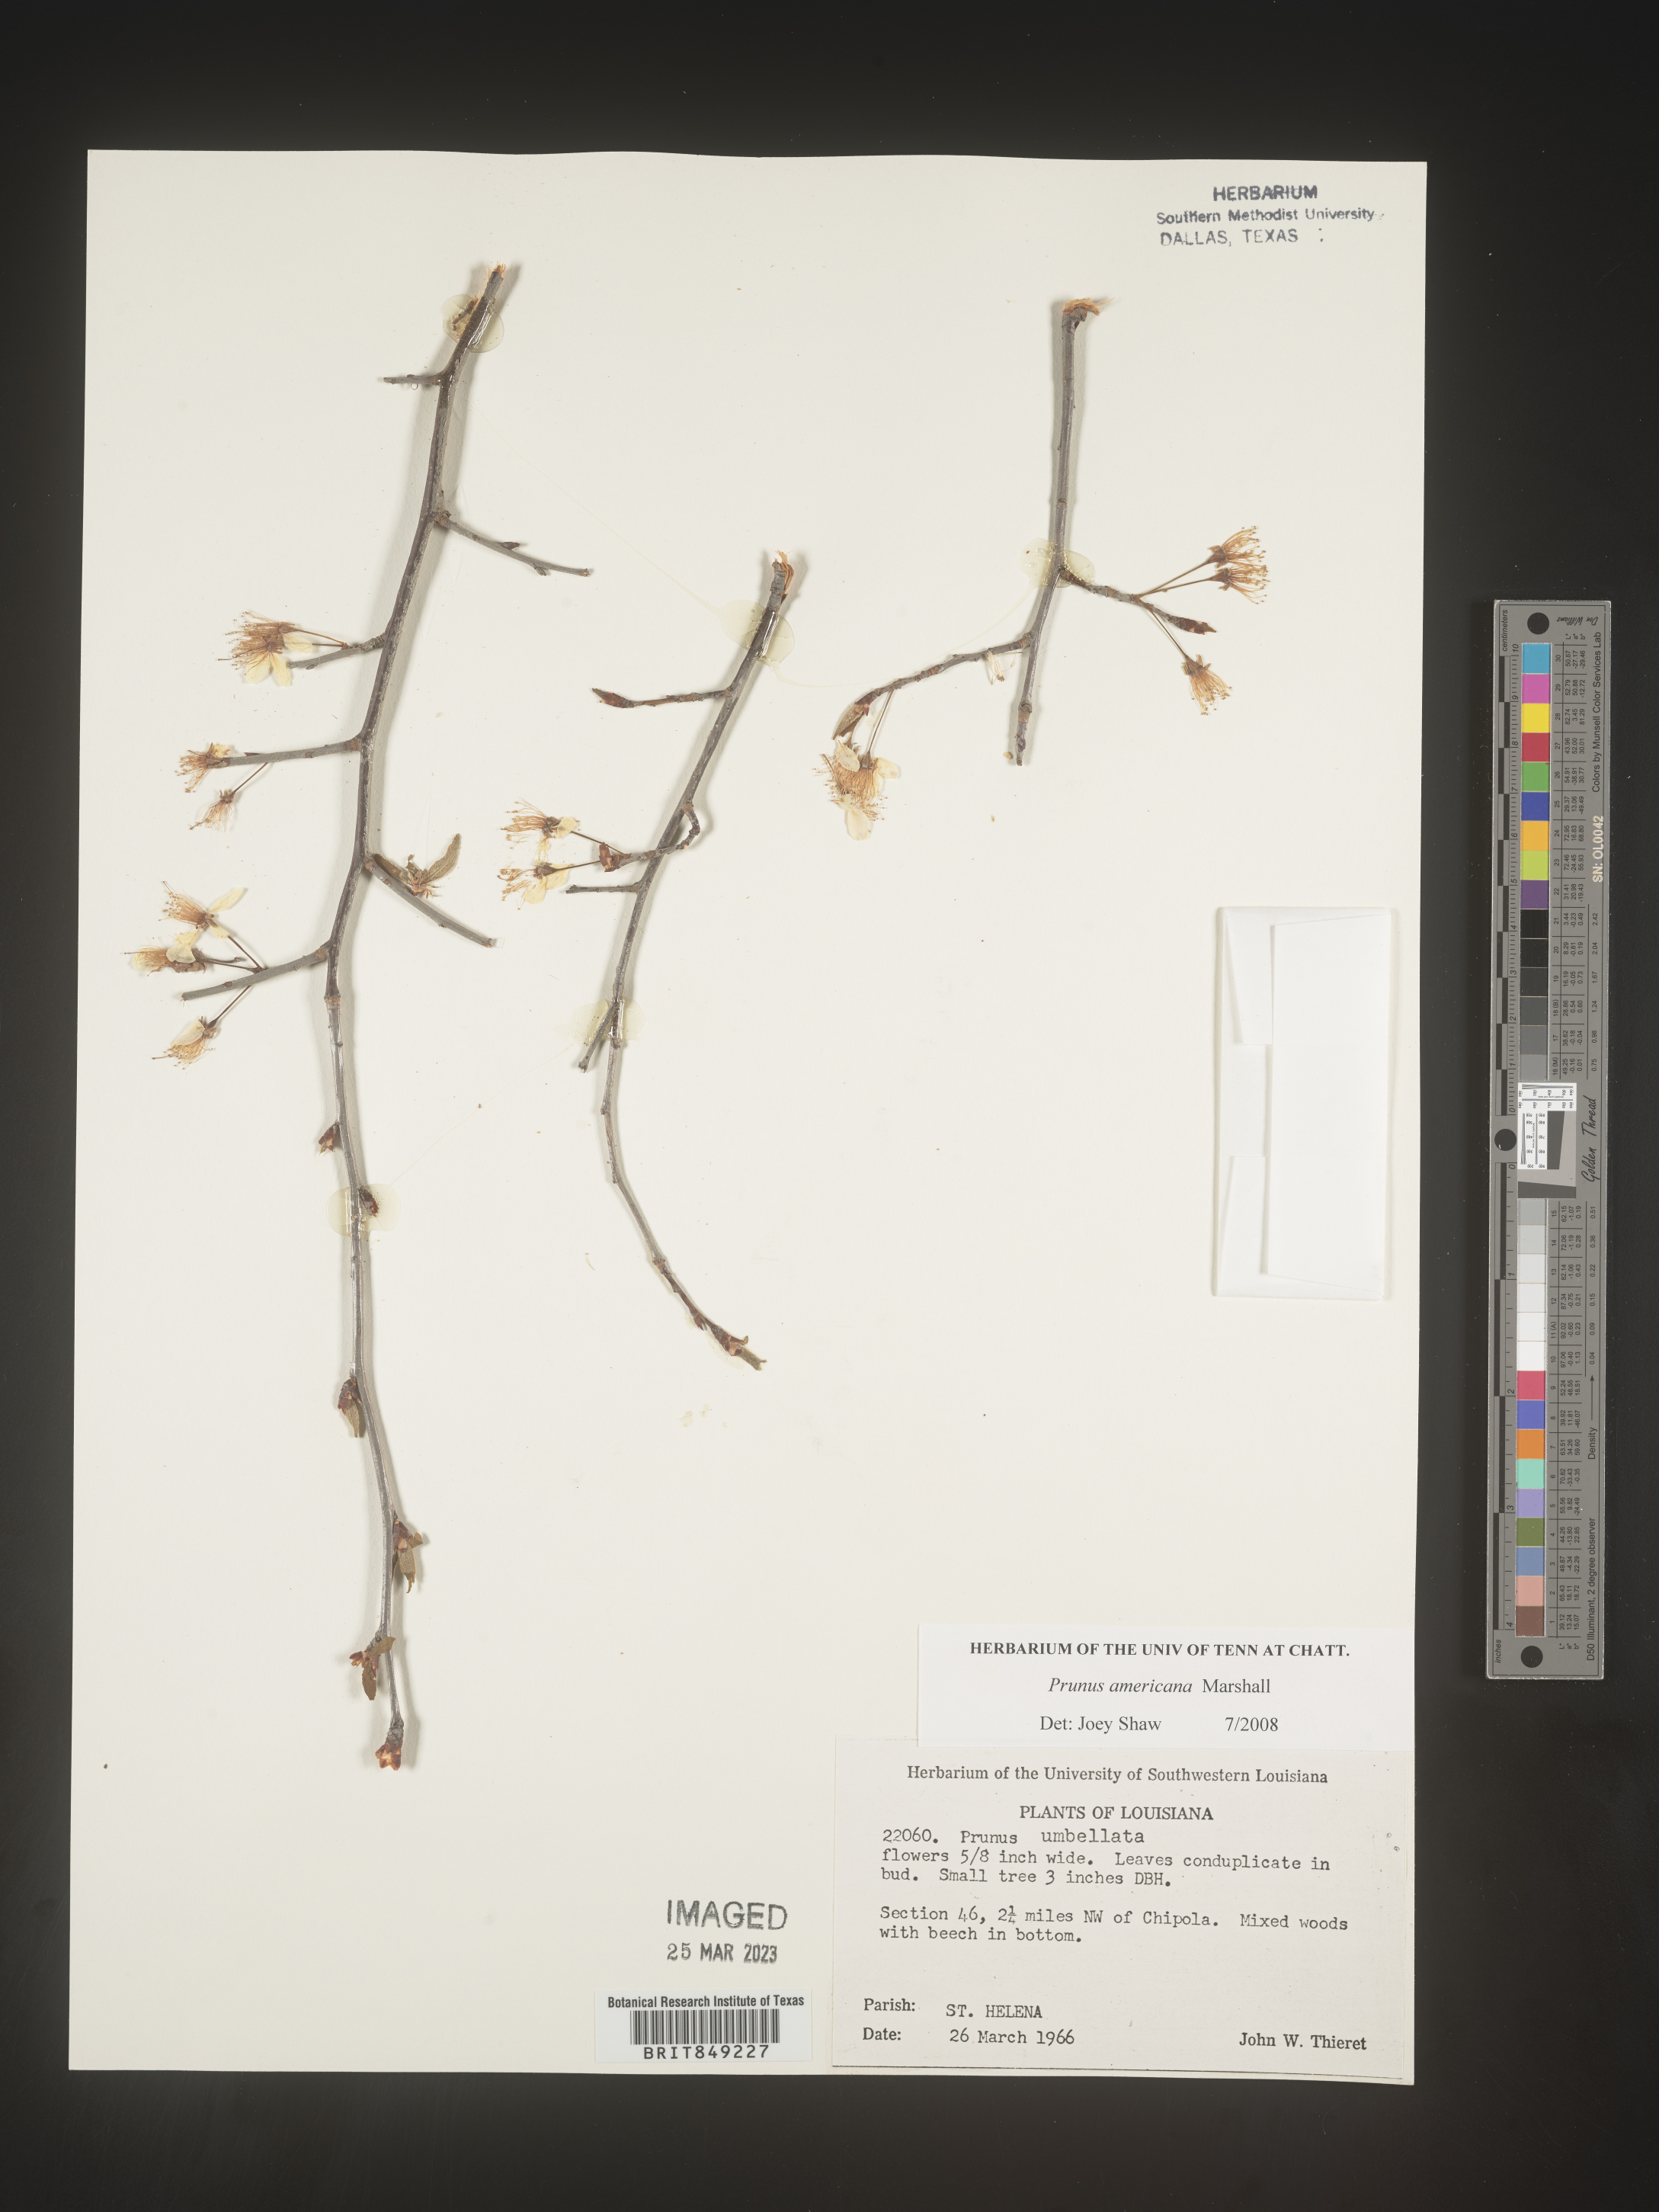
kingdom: Plantae
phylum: Tracheophyta
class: Magnoliopsida
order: Rosales
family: Rosaceae
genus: Prunus
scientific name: Prunus americana
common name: American plum
